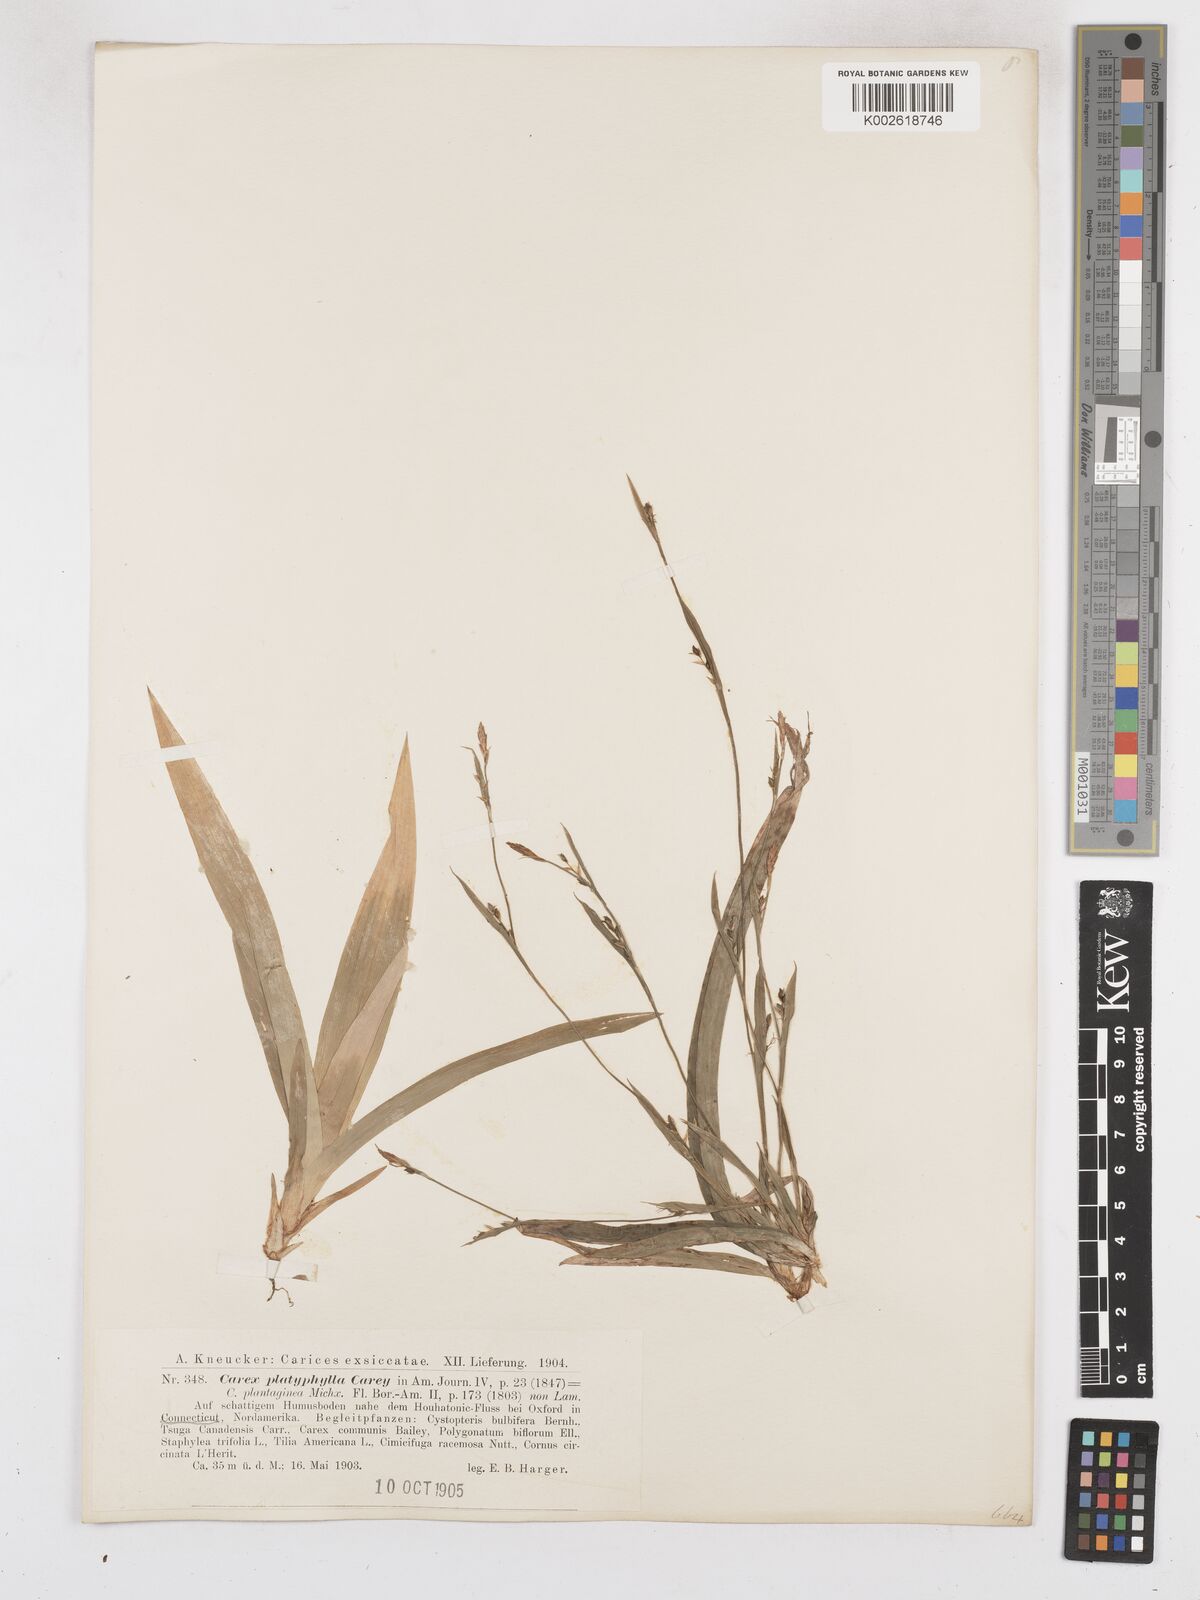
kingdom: Plantae
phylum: Tracheophyta
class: Liliopsida
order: Poales
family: Cyperaceae
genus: Carex
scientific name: Carex platyphylla
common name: Broad-leaved sedge
